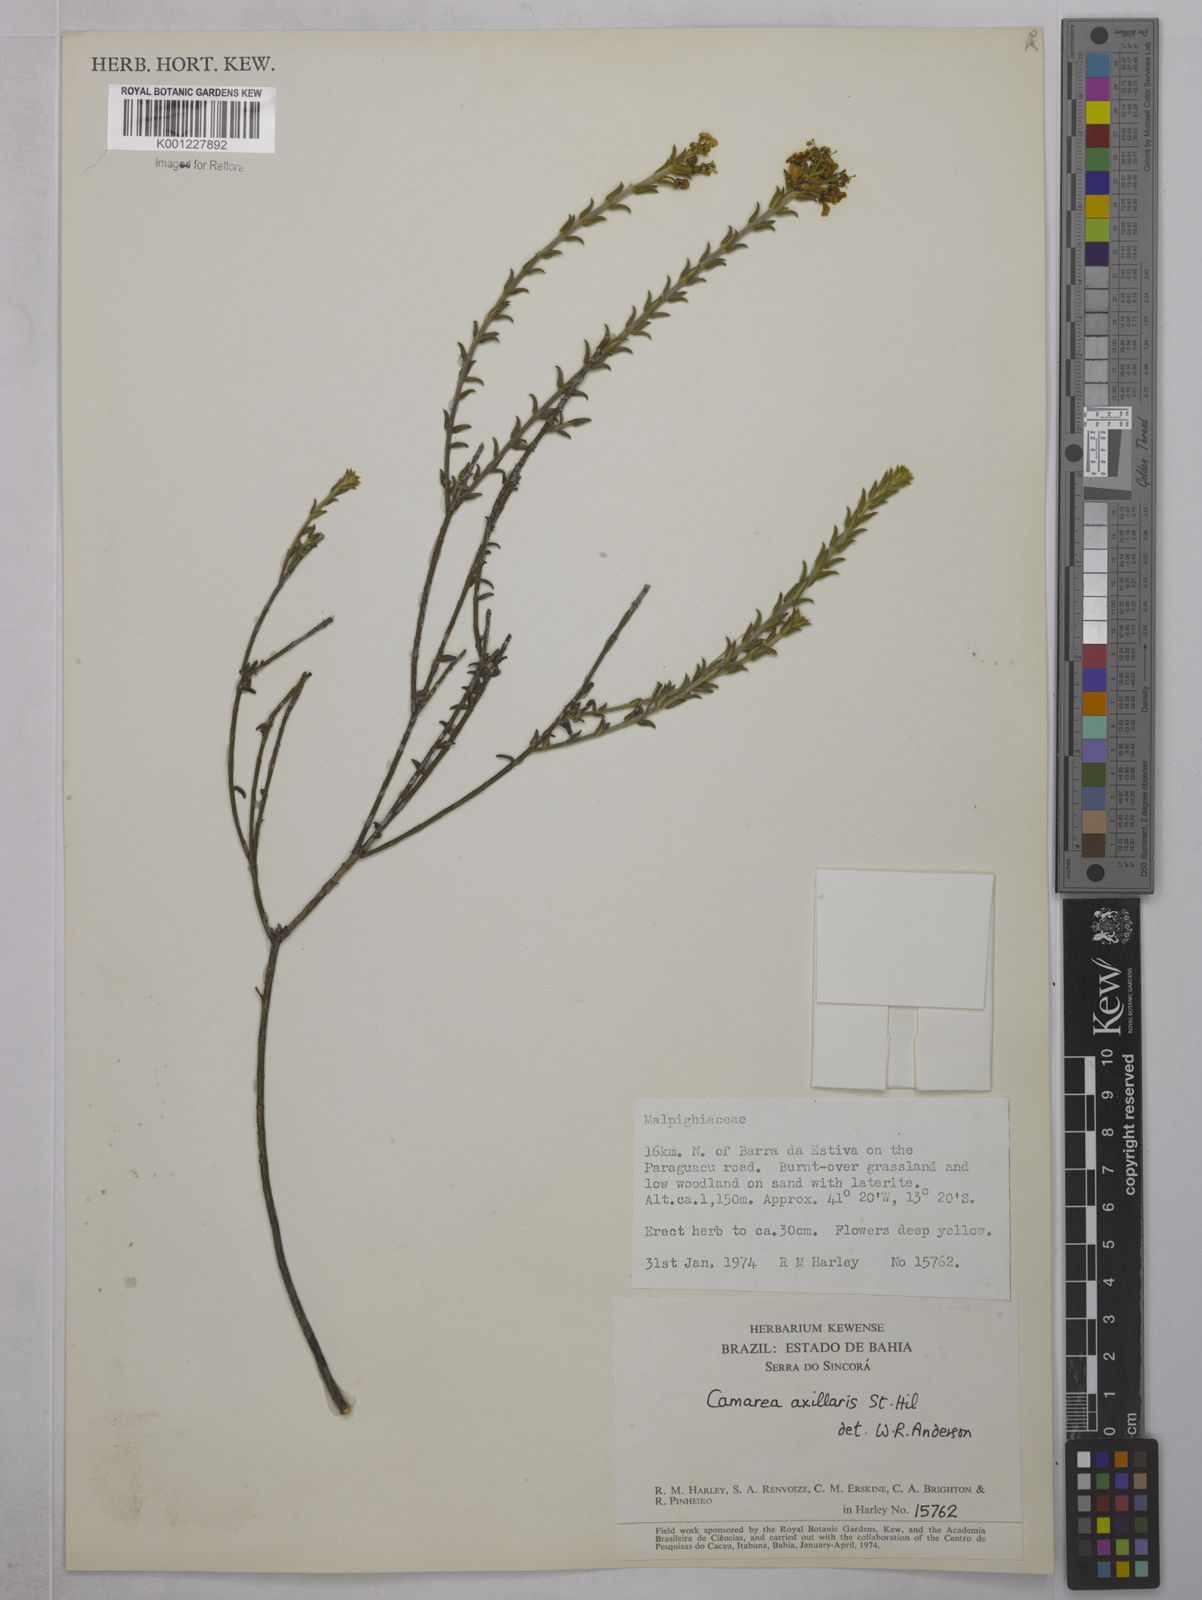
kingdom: Plantae
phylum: Tracheophyta
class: Magnoliopsida
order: Malpighiales
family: Malpighiaceae
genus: Camarea
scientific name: Camarea axillaris
